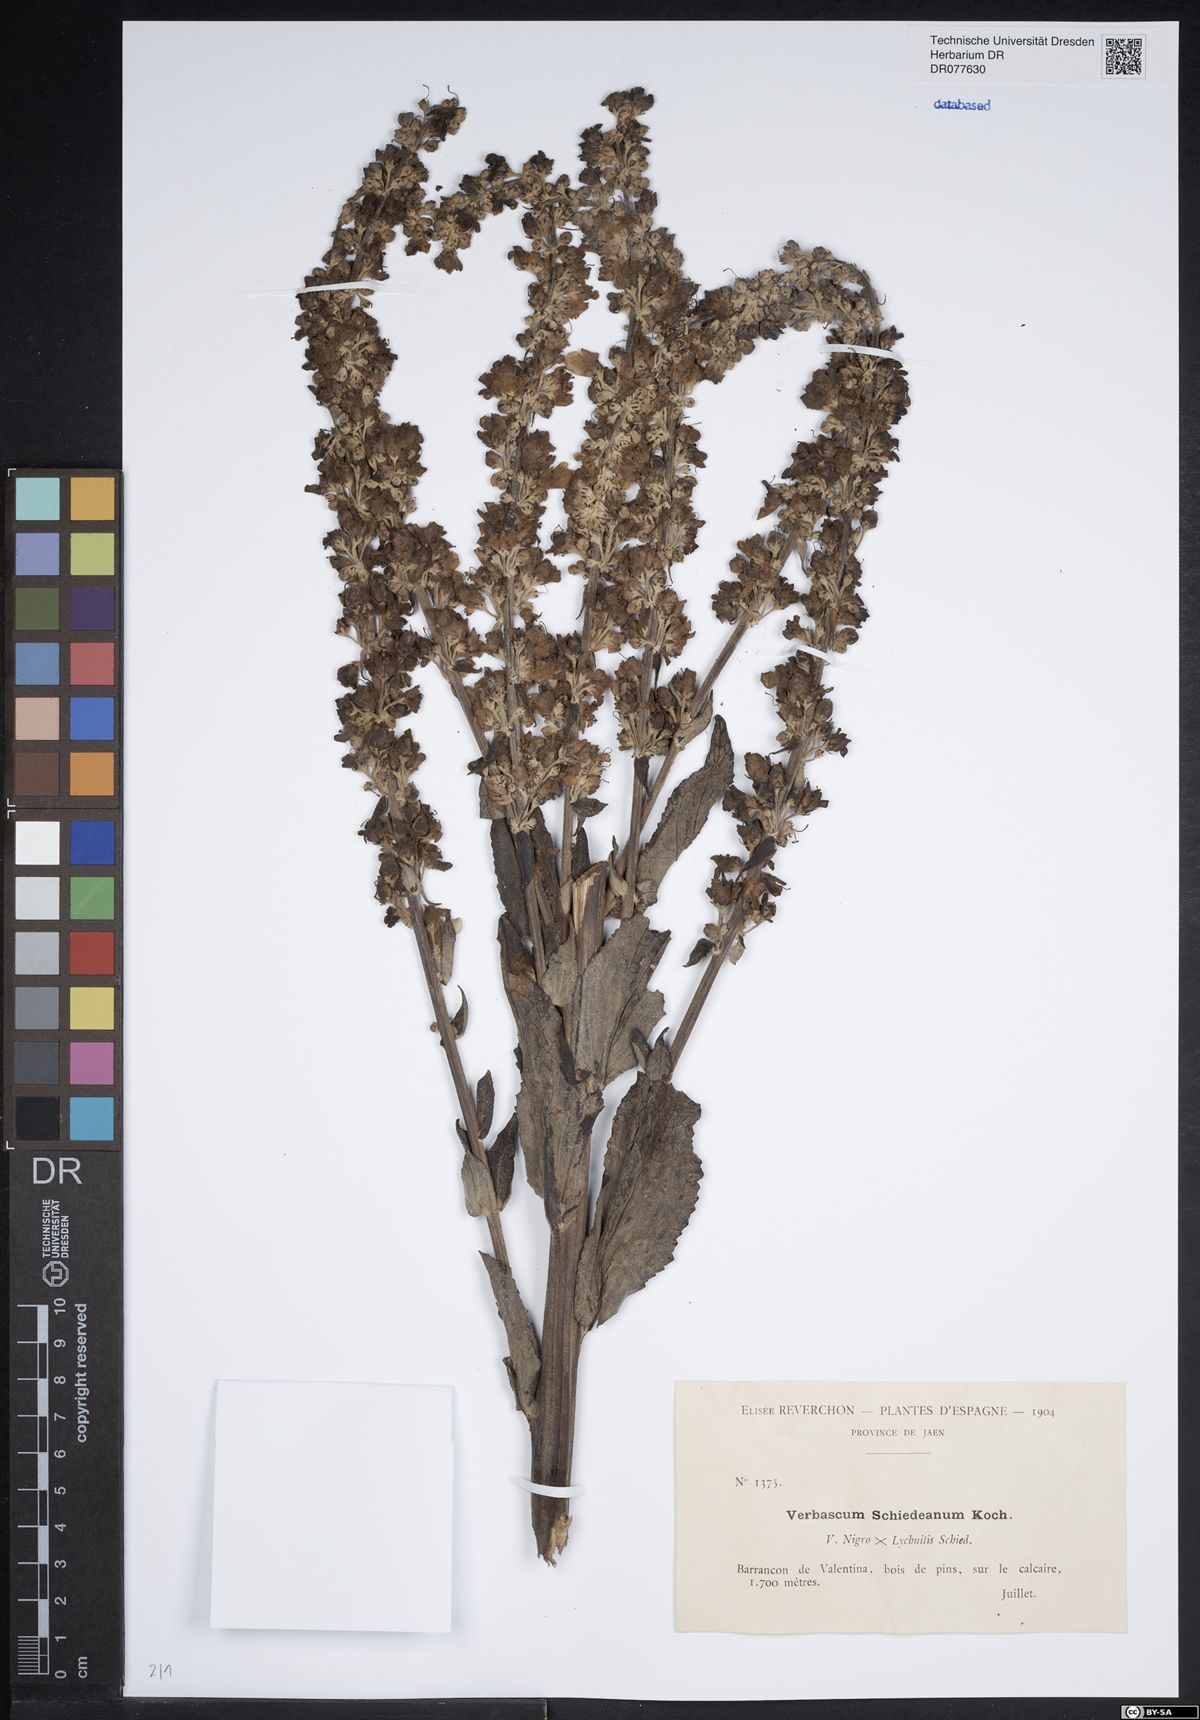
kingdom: Plantae
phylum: Tracheophyta
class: Magnoliopsida
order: Lamiales
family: Scrophulariaceae
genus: Verbascum
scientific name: Verbascum biebersteinii
